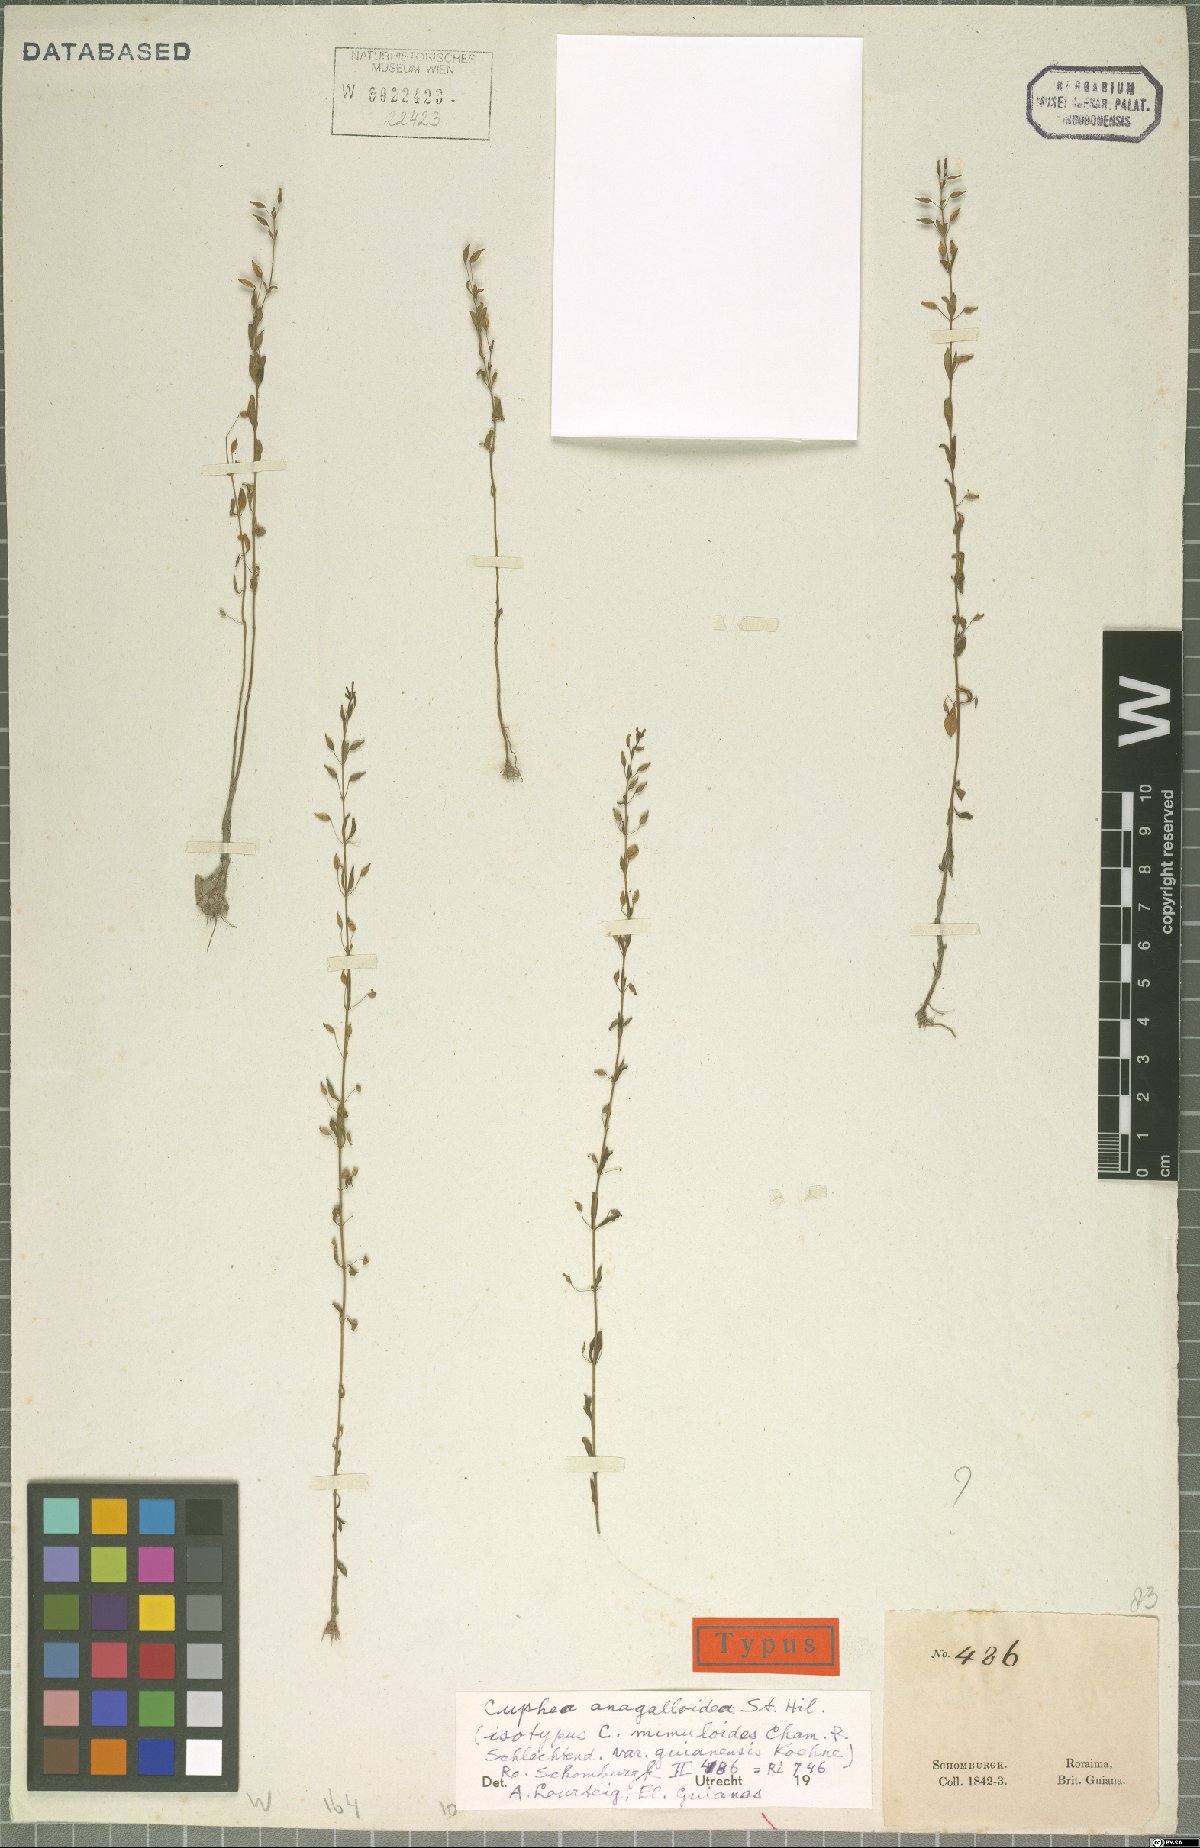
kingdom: Plantae
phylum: Tracheophyta
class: Magnoliopsida
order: Myrtales
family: Lythraceae
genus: Cuphea
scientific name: Cuphea anagalloidea
